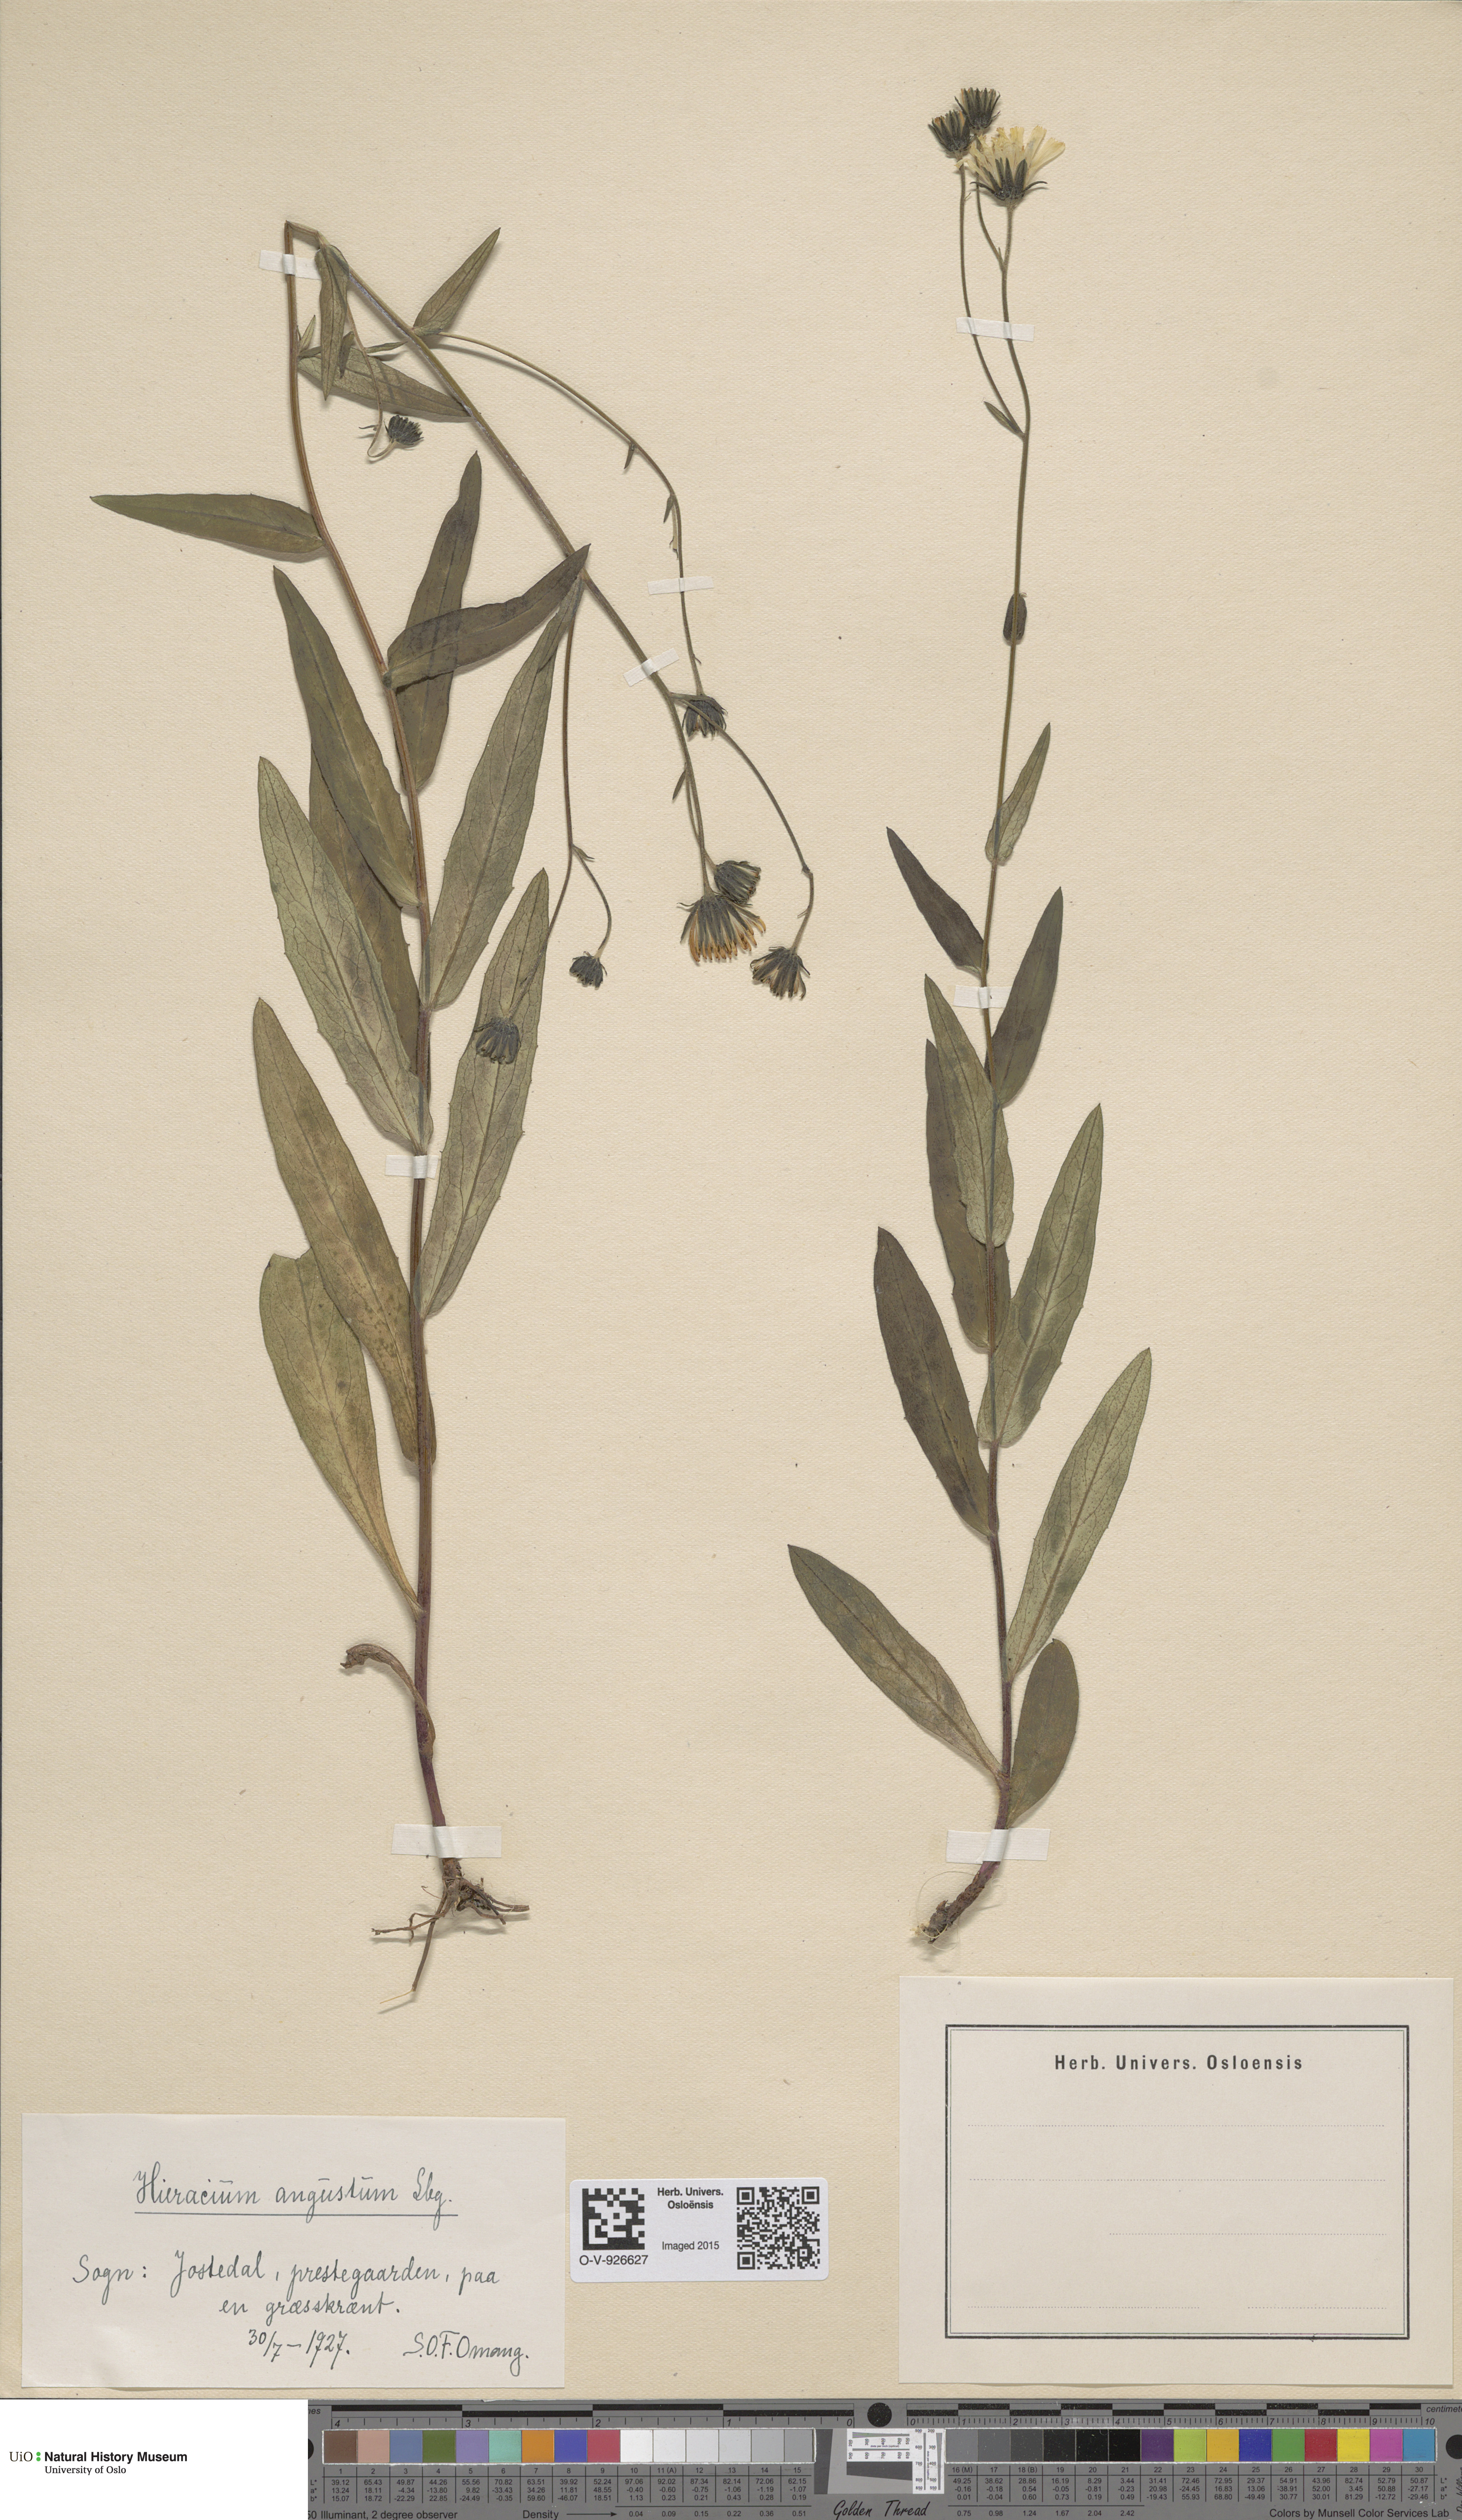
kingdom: Plantae
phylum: Tracheophyta
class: Magnoliopsida
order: Asterales
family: Asteraceae
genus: Hieracium
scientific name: Hieracium angustum
